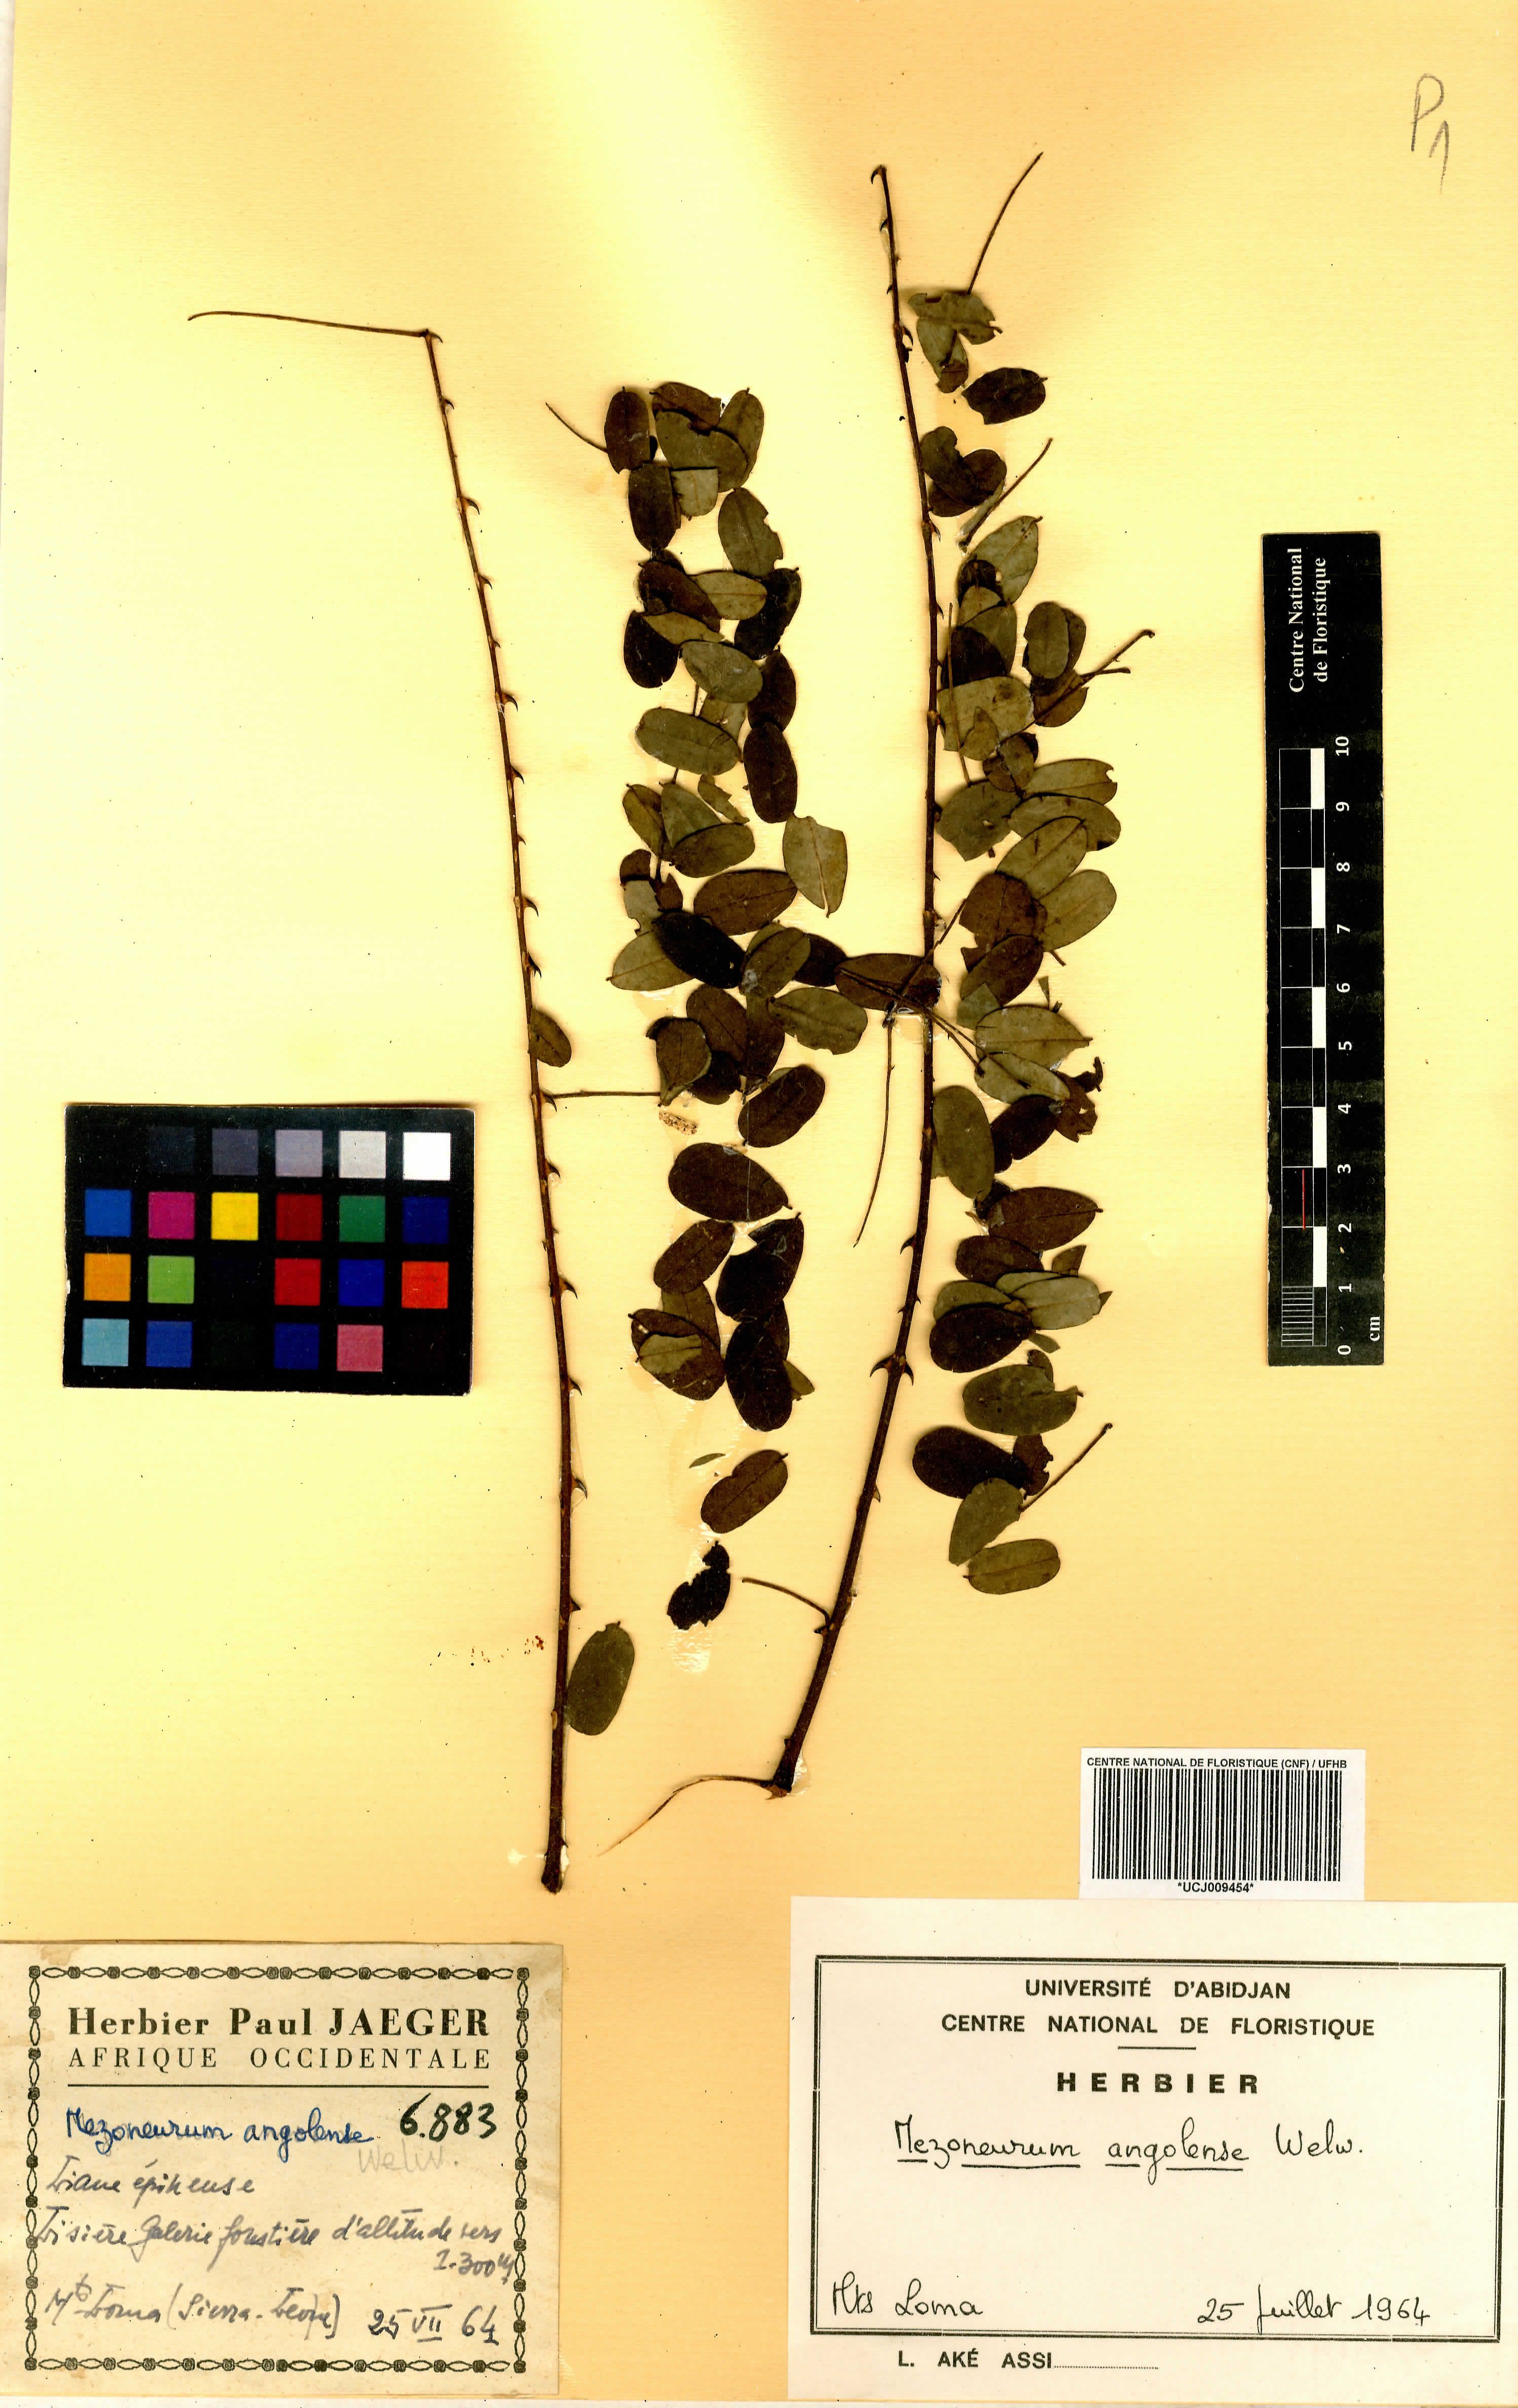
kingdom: Plantae
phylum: Tracheophyta
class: Magnoliopsida
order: Fabales
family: Fabaceae
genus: Mezoneuron
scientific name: Mezoneuron angolense
